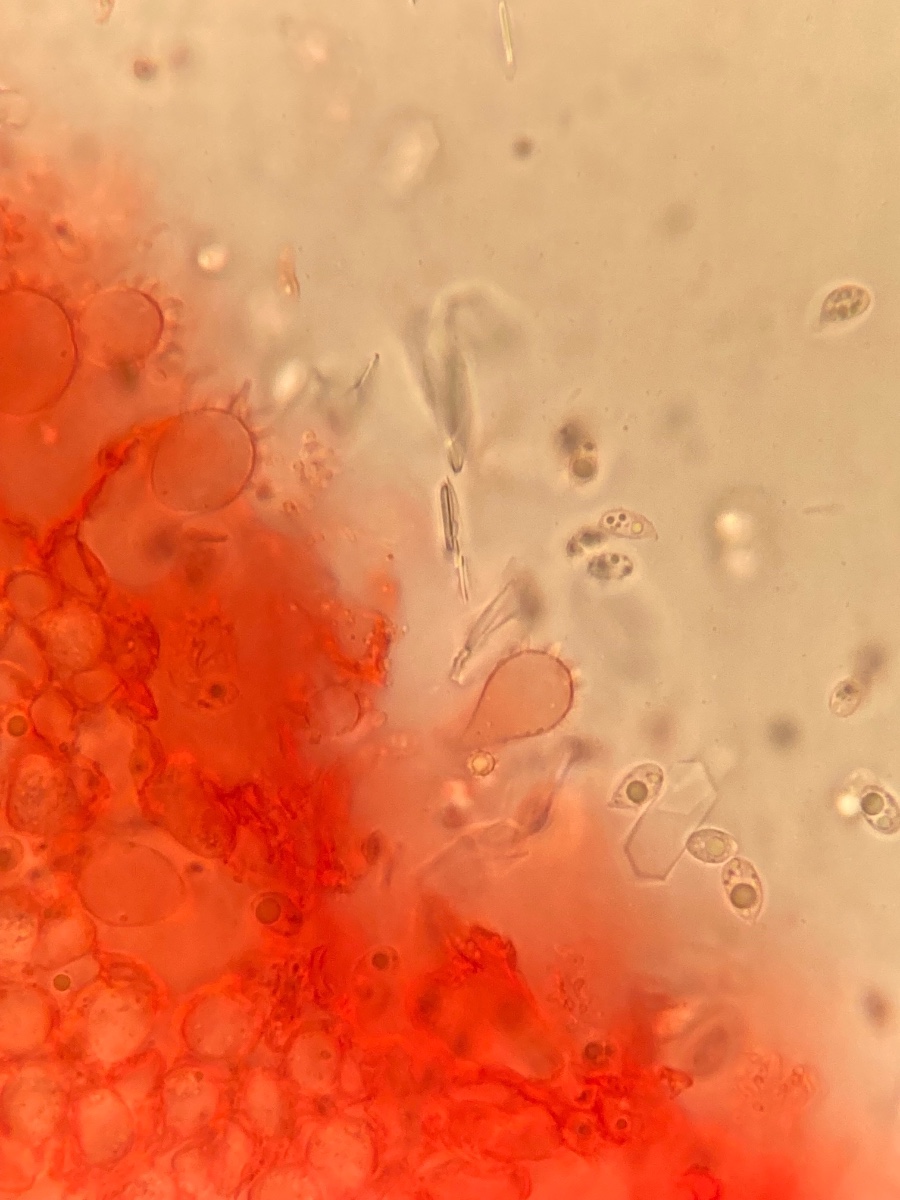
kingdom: Fungi
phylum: Basidiomycota
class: Agaricomycetes
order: Agaricales
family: Mycenaceae
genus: Mycena
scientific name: Mycena metata
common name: rødlig huesvamp
